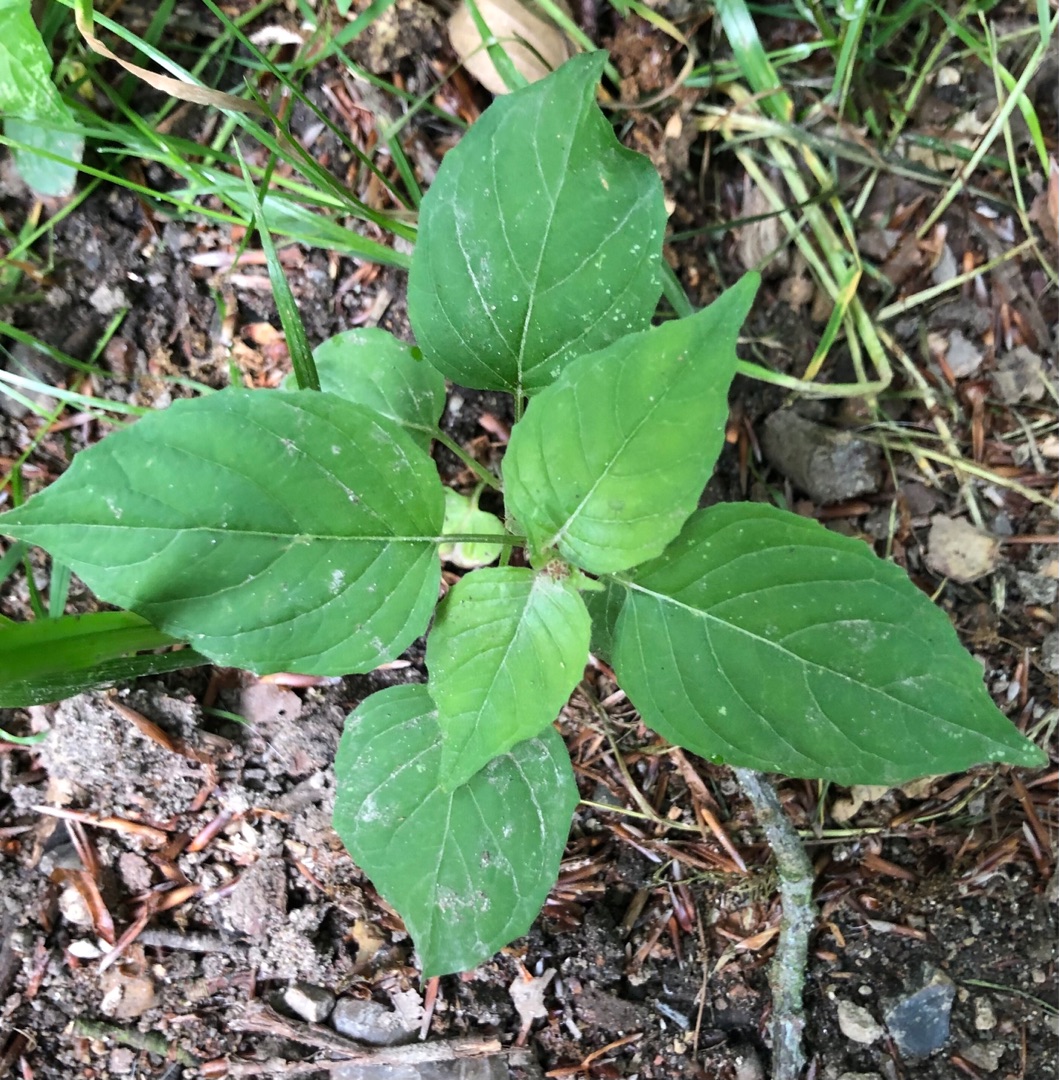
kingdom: Plantae
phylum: Tracheophyta
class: Magnoliopsida
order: Myrtales
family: Onagraceae
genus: Circaea
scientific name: Circaea lutetiana
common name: Dunet steffensurt
